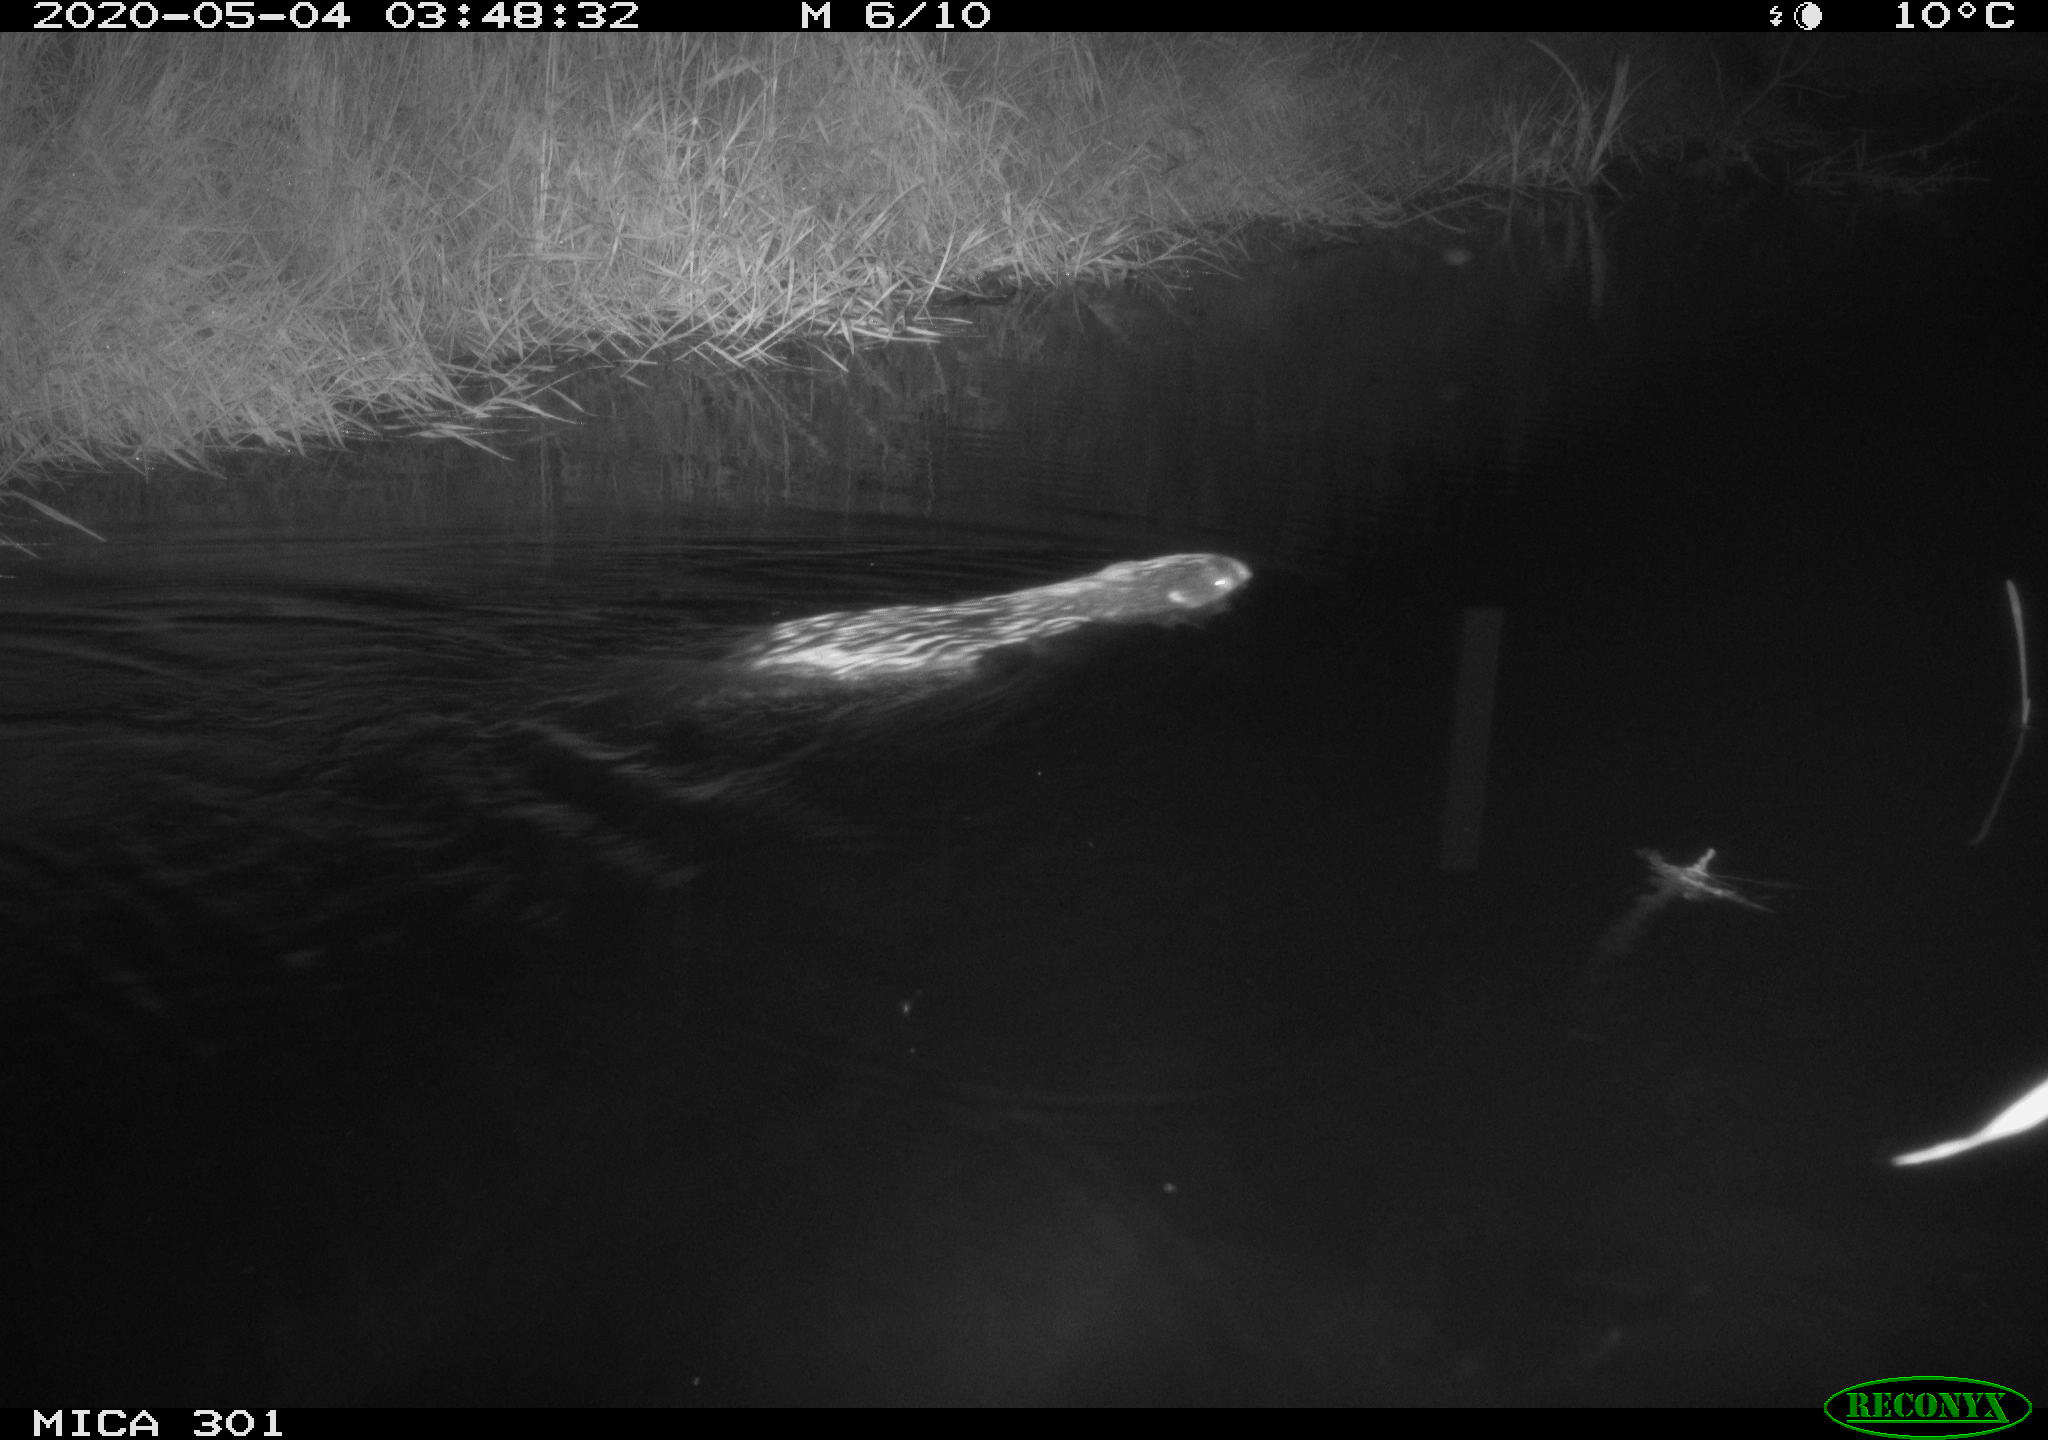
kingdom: Animalia
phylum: Chordata
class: Mammalia
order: Rodentia
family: Castoridae
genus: Castor
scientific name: Castor fiber
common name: Eurasian beaver
